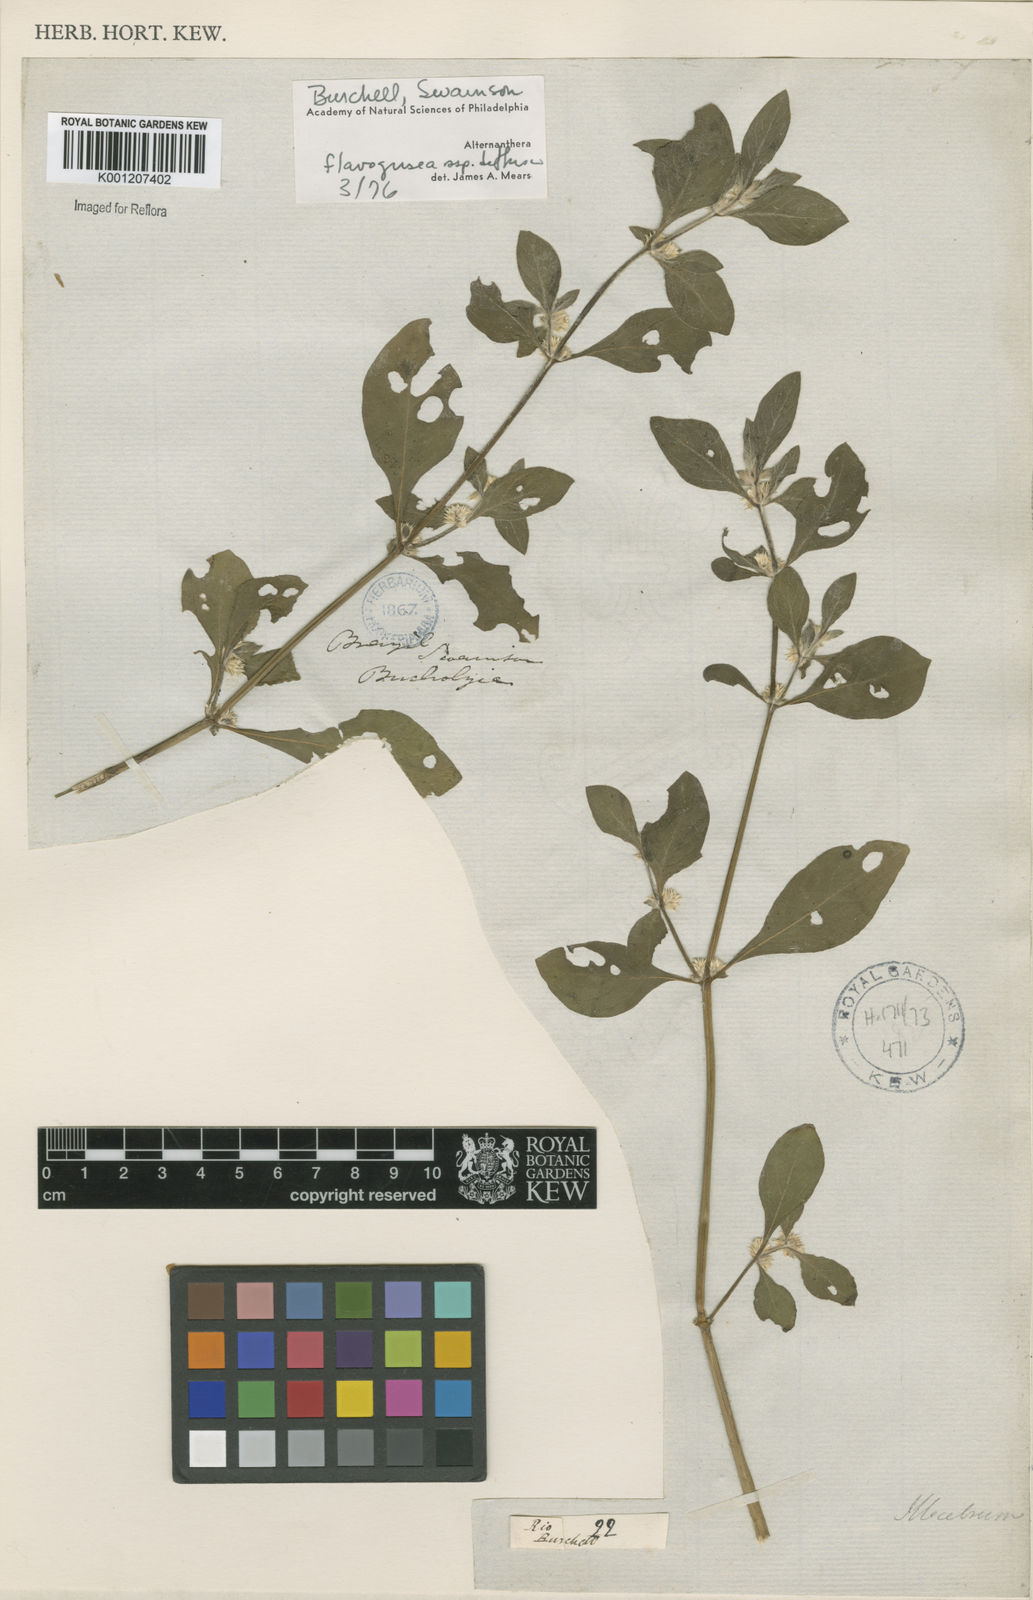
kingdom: Plantae
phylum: Tracheophyta
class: Magnoliopsida
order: Caryophyllales
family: Amaranthaceae
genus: Alternanthera
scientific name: Alternanthera halimifolia
